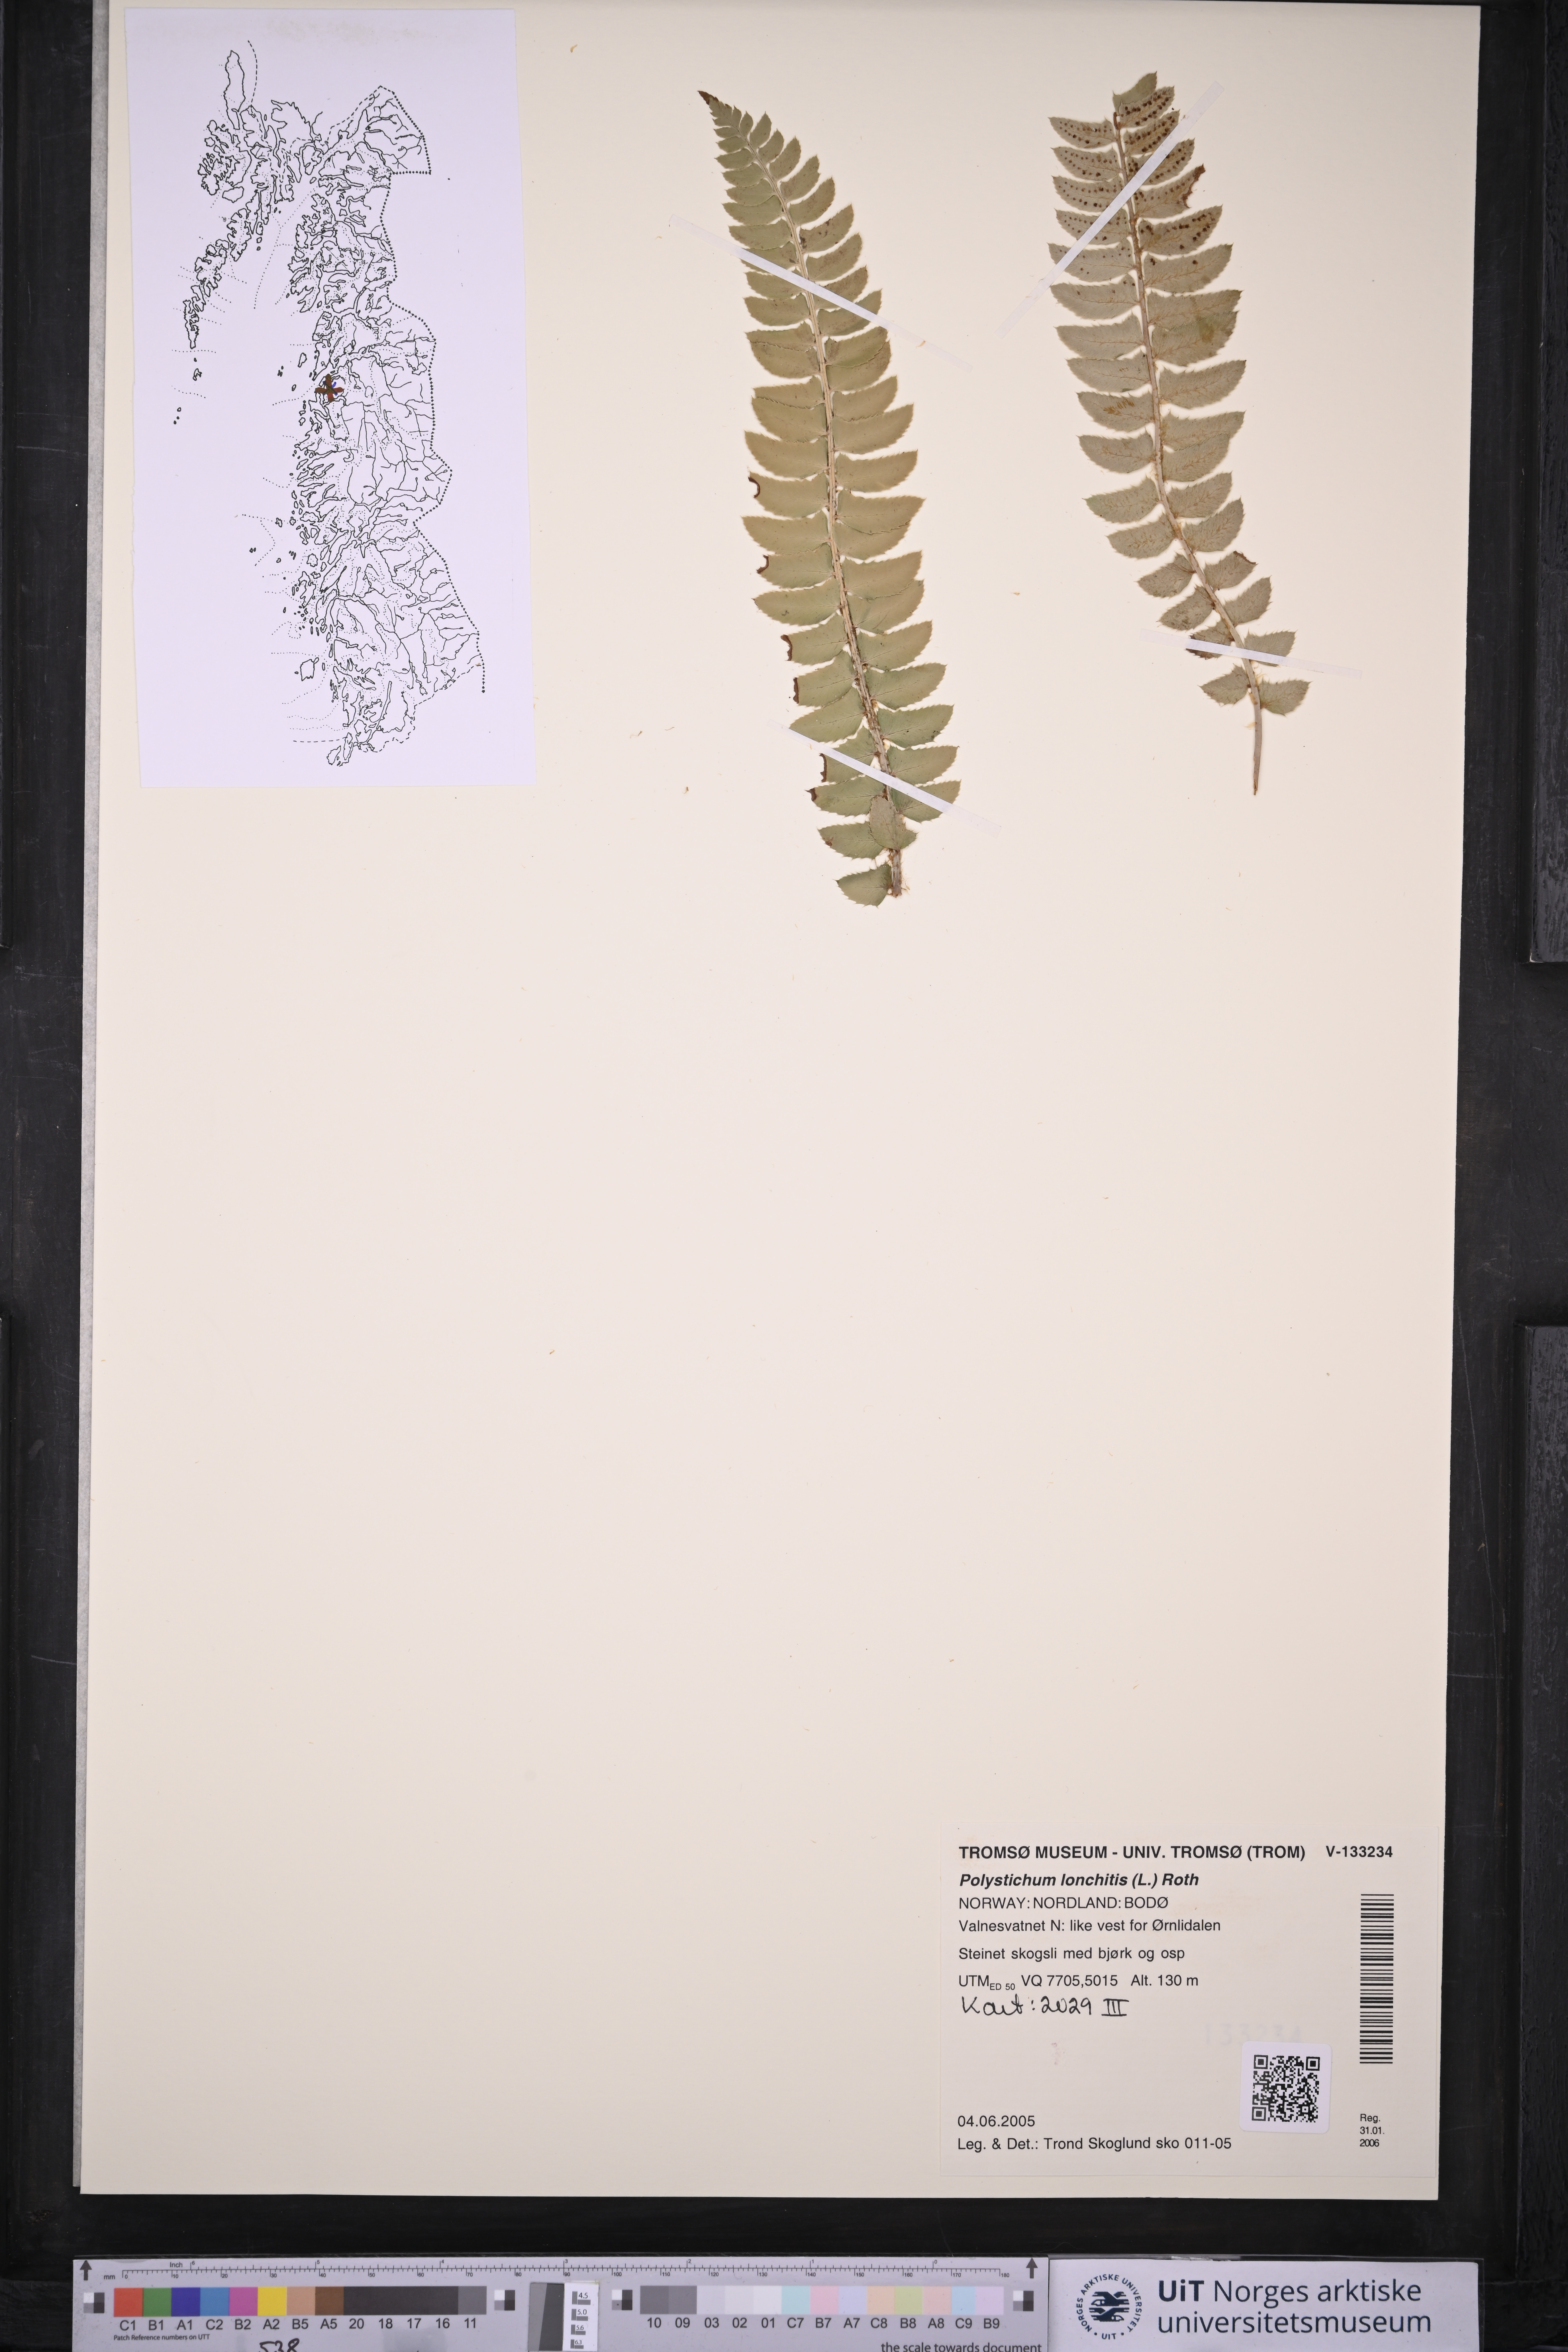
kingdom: Plantae
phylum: Tracheophyta
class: Polypodiopsida
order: Polypodiales
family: Dryopteridaceae
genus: Polystichum
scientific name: Polystichum lonchitis
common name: Holly fern
